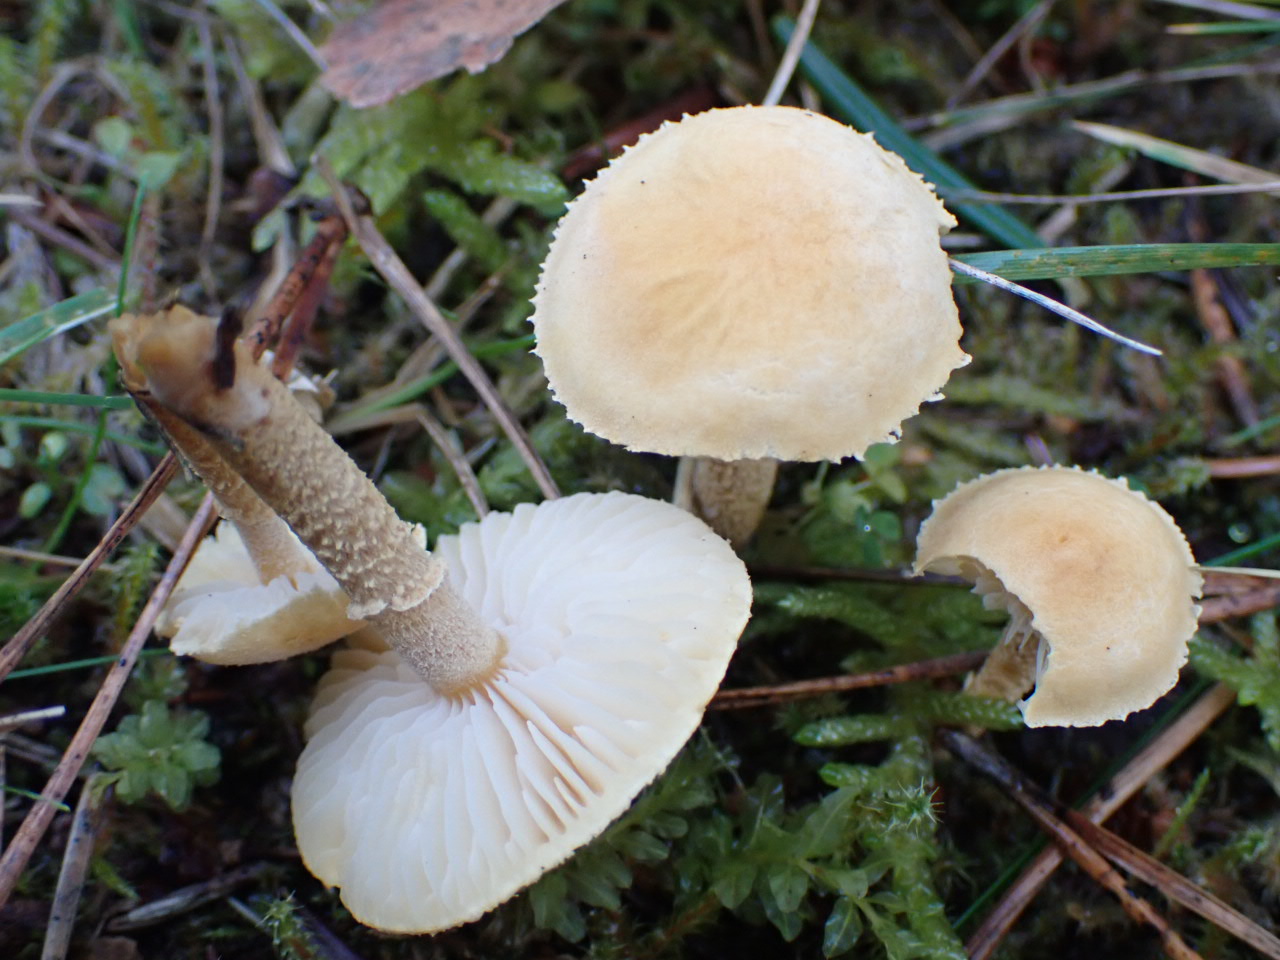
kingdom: Fungi
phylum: Basidiomycota
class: Agaricomycetes
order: Agaricales
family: Tricholomataceae
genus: Cystoderma
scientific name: Cystoderma amianthinum
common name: okkergul grynhat
